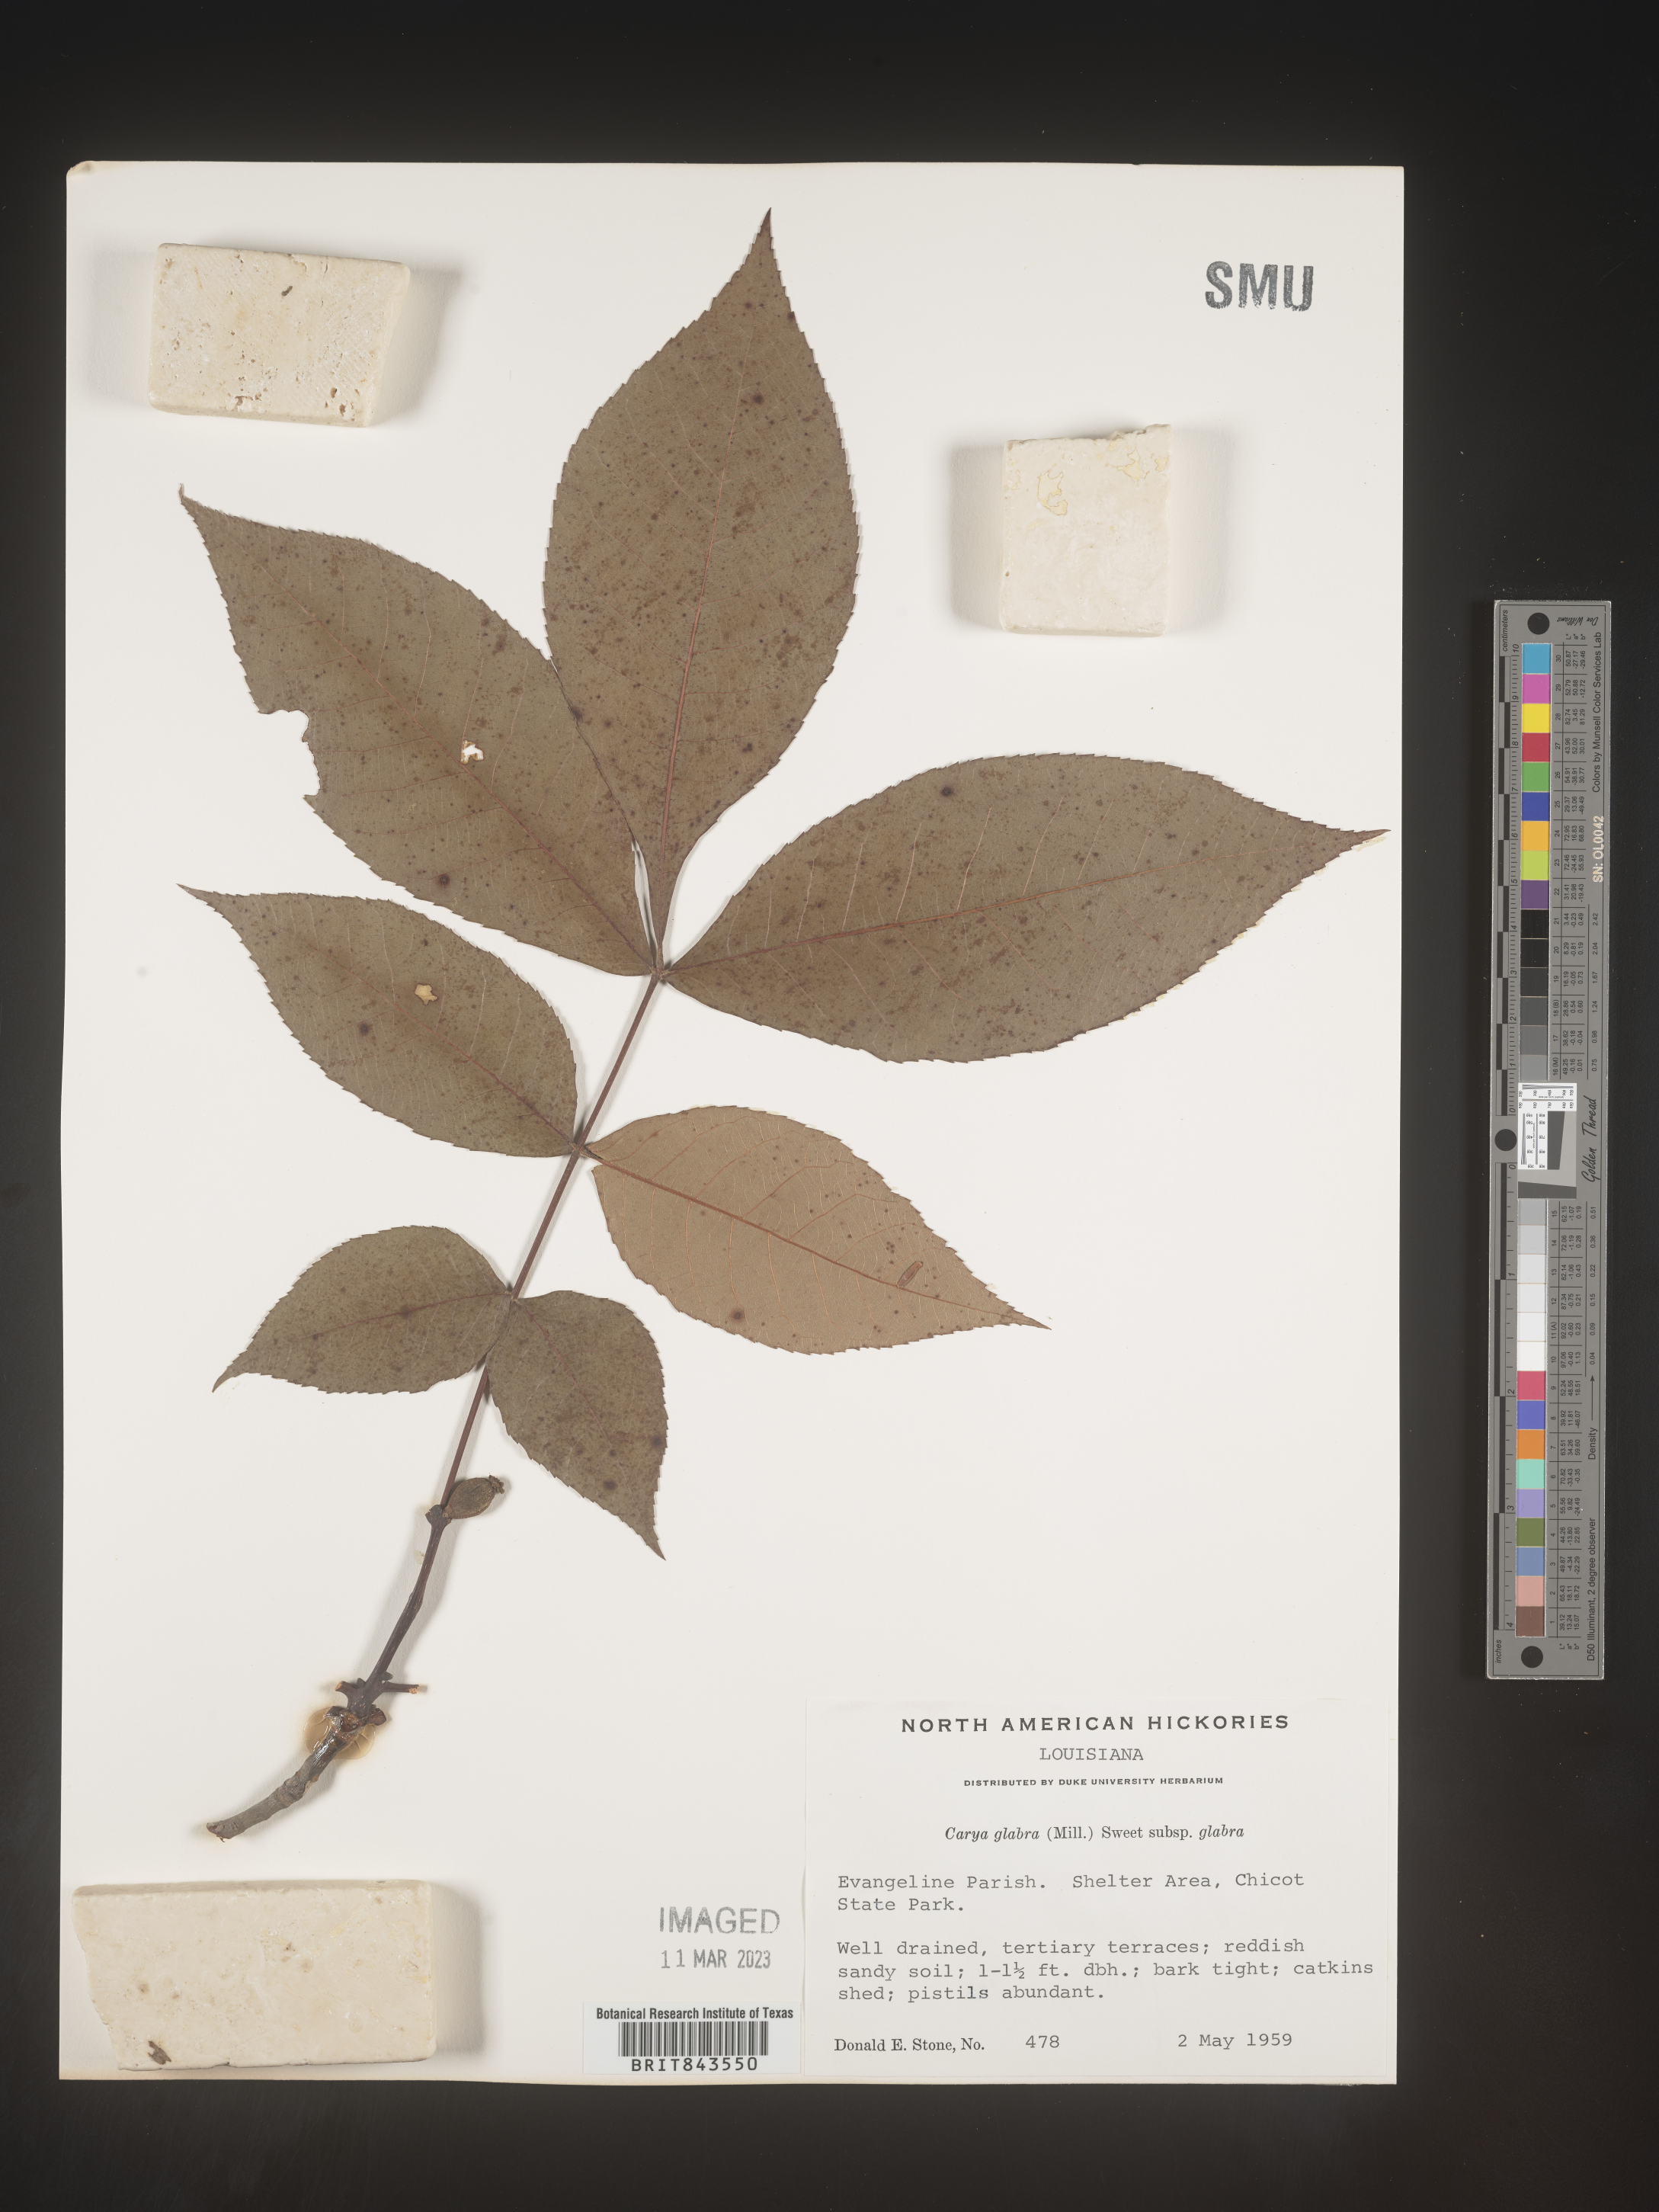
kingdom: Plantae
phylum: Tracheophyta
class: Magnoliopsida
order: Fagales
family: Juglandaceae
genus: Carya
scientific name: Carya glabra
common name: Pignut hickory
